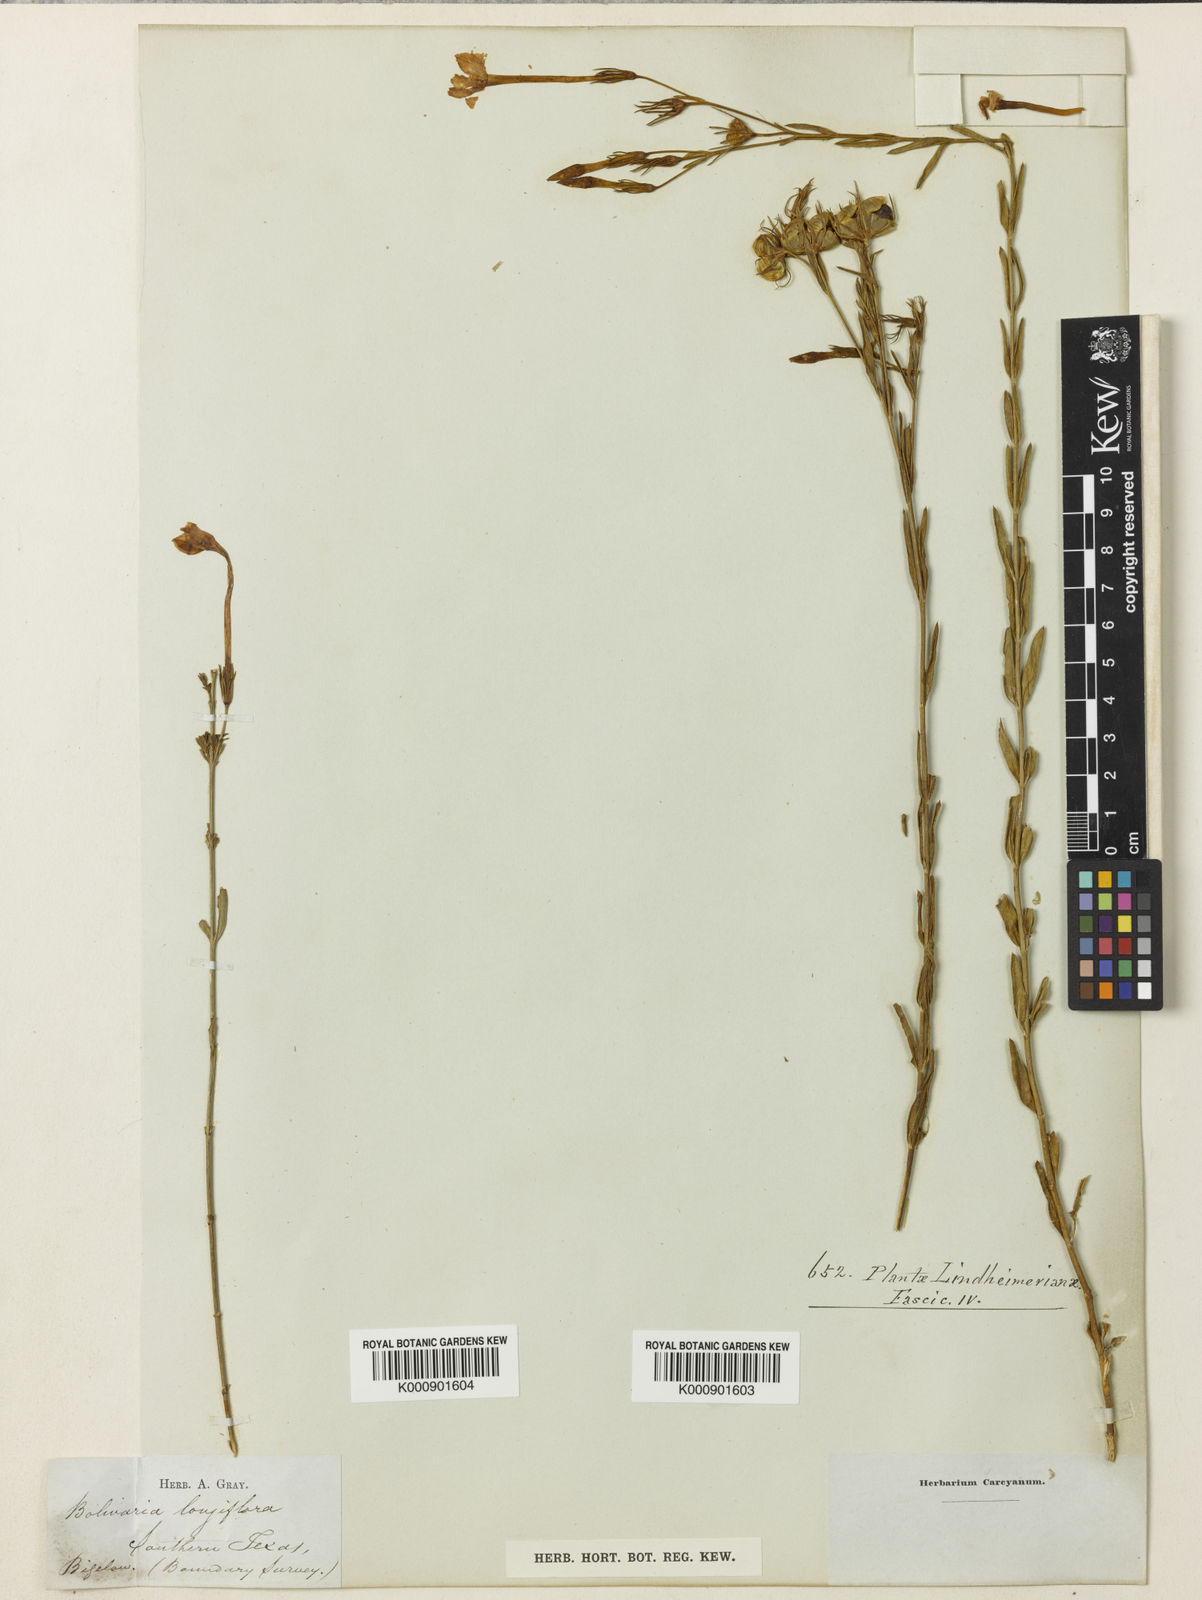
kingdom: Plantae
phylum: Tracheophyta
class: Magnoliopsida
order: Lamiales
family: Oleaceae
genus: Menodora
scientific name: Menodora longiflora
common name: Showy menodora
